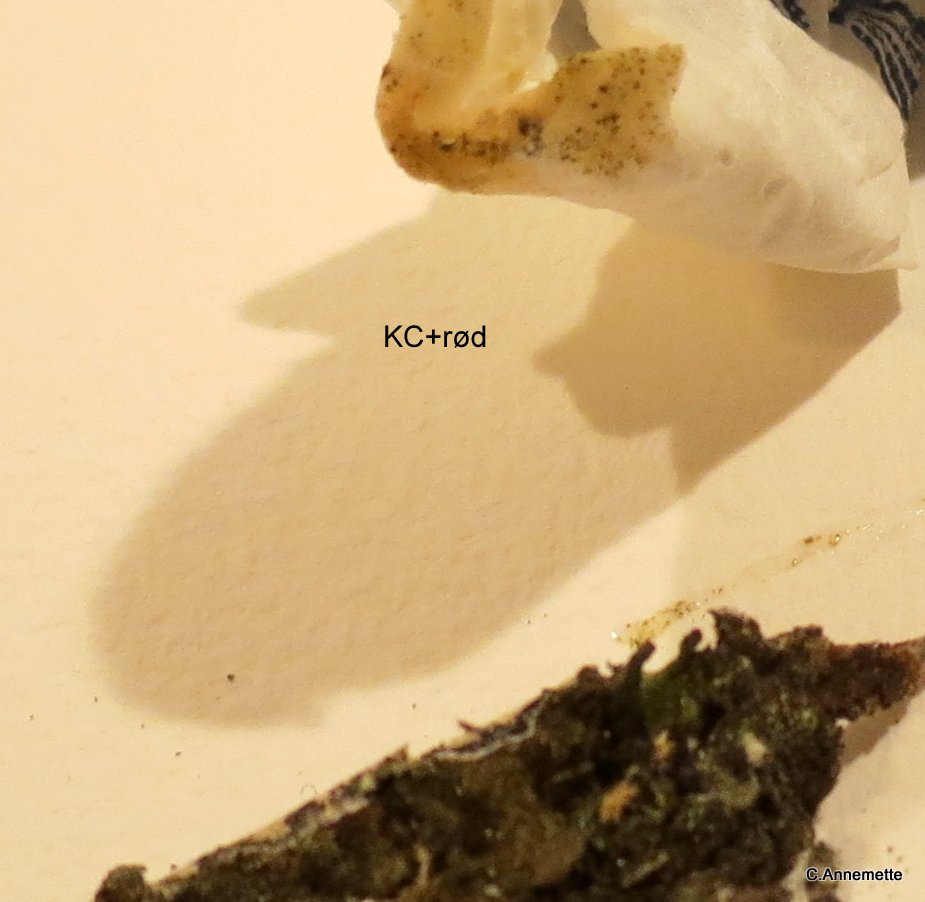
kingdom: Fungi
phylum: Ascomycota
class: Lecanoromycetes
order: Lecanorales
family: Parmeliaceae
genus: Melanelixia
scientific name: Melanelixia subaurifera
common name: guldpudret skållav
